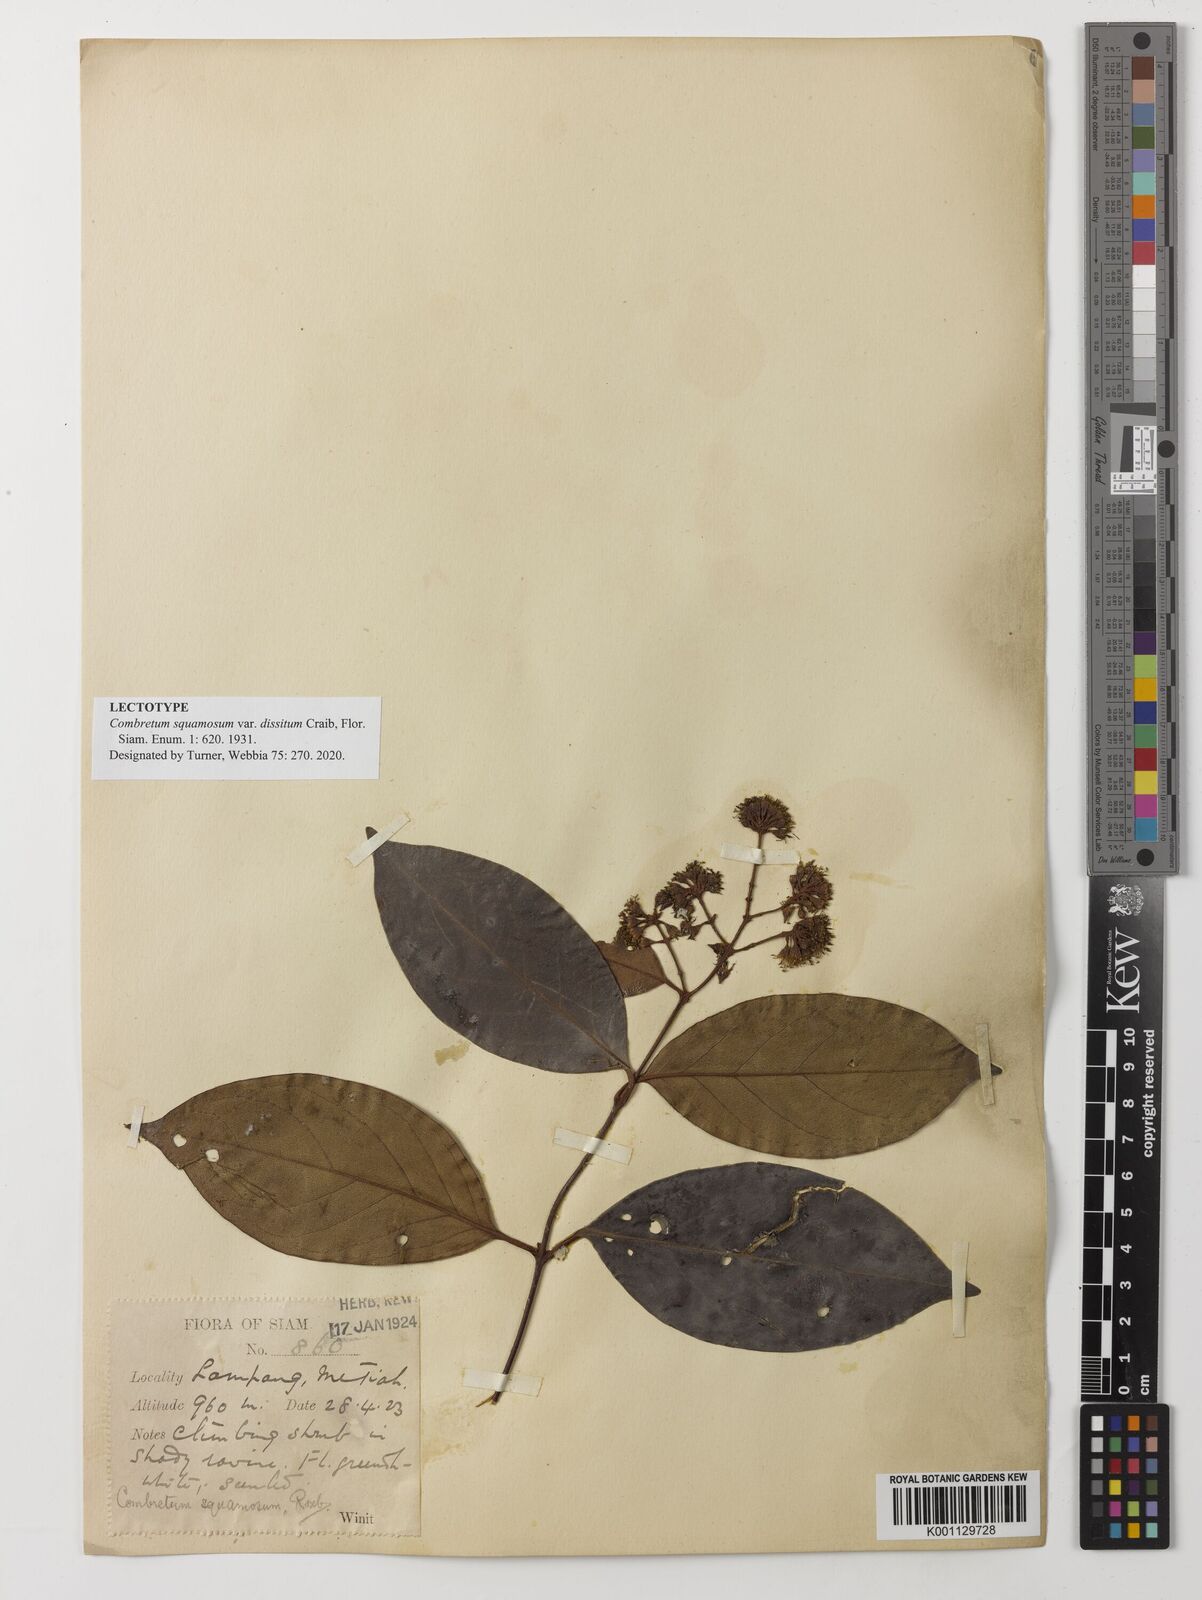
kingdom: Plantae
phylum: Tracheophyta
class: Magnoliopsida
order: Myrtales
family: Combretaceae
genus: Combretum
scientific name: Combretum punctatum
